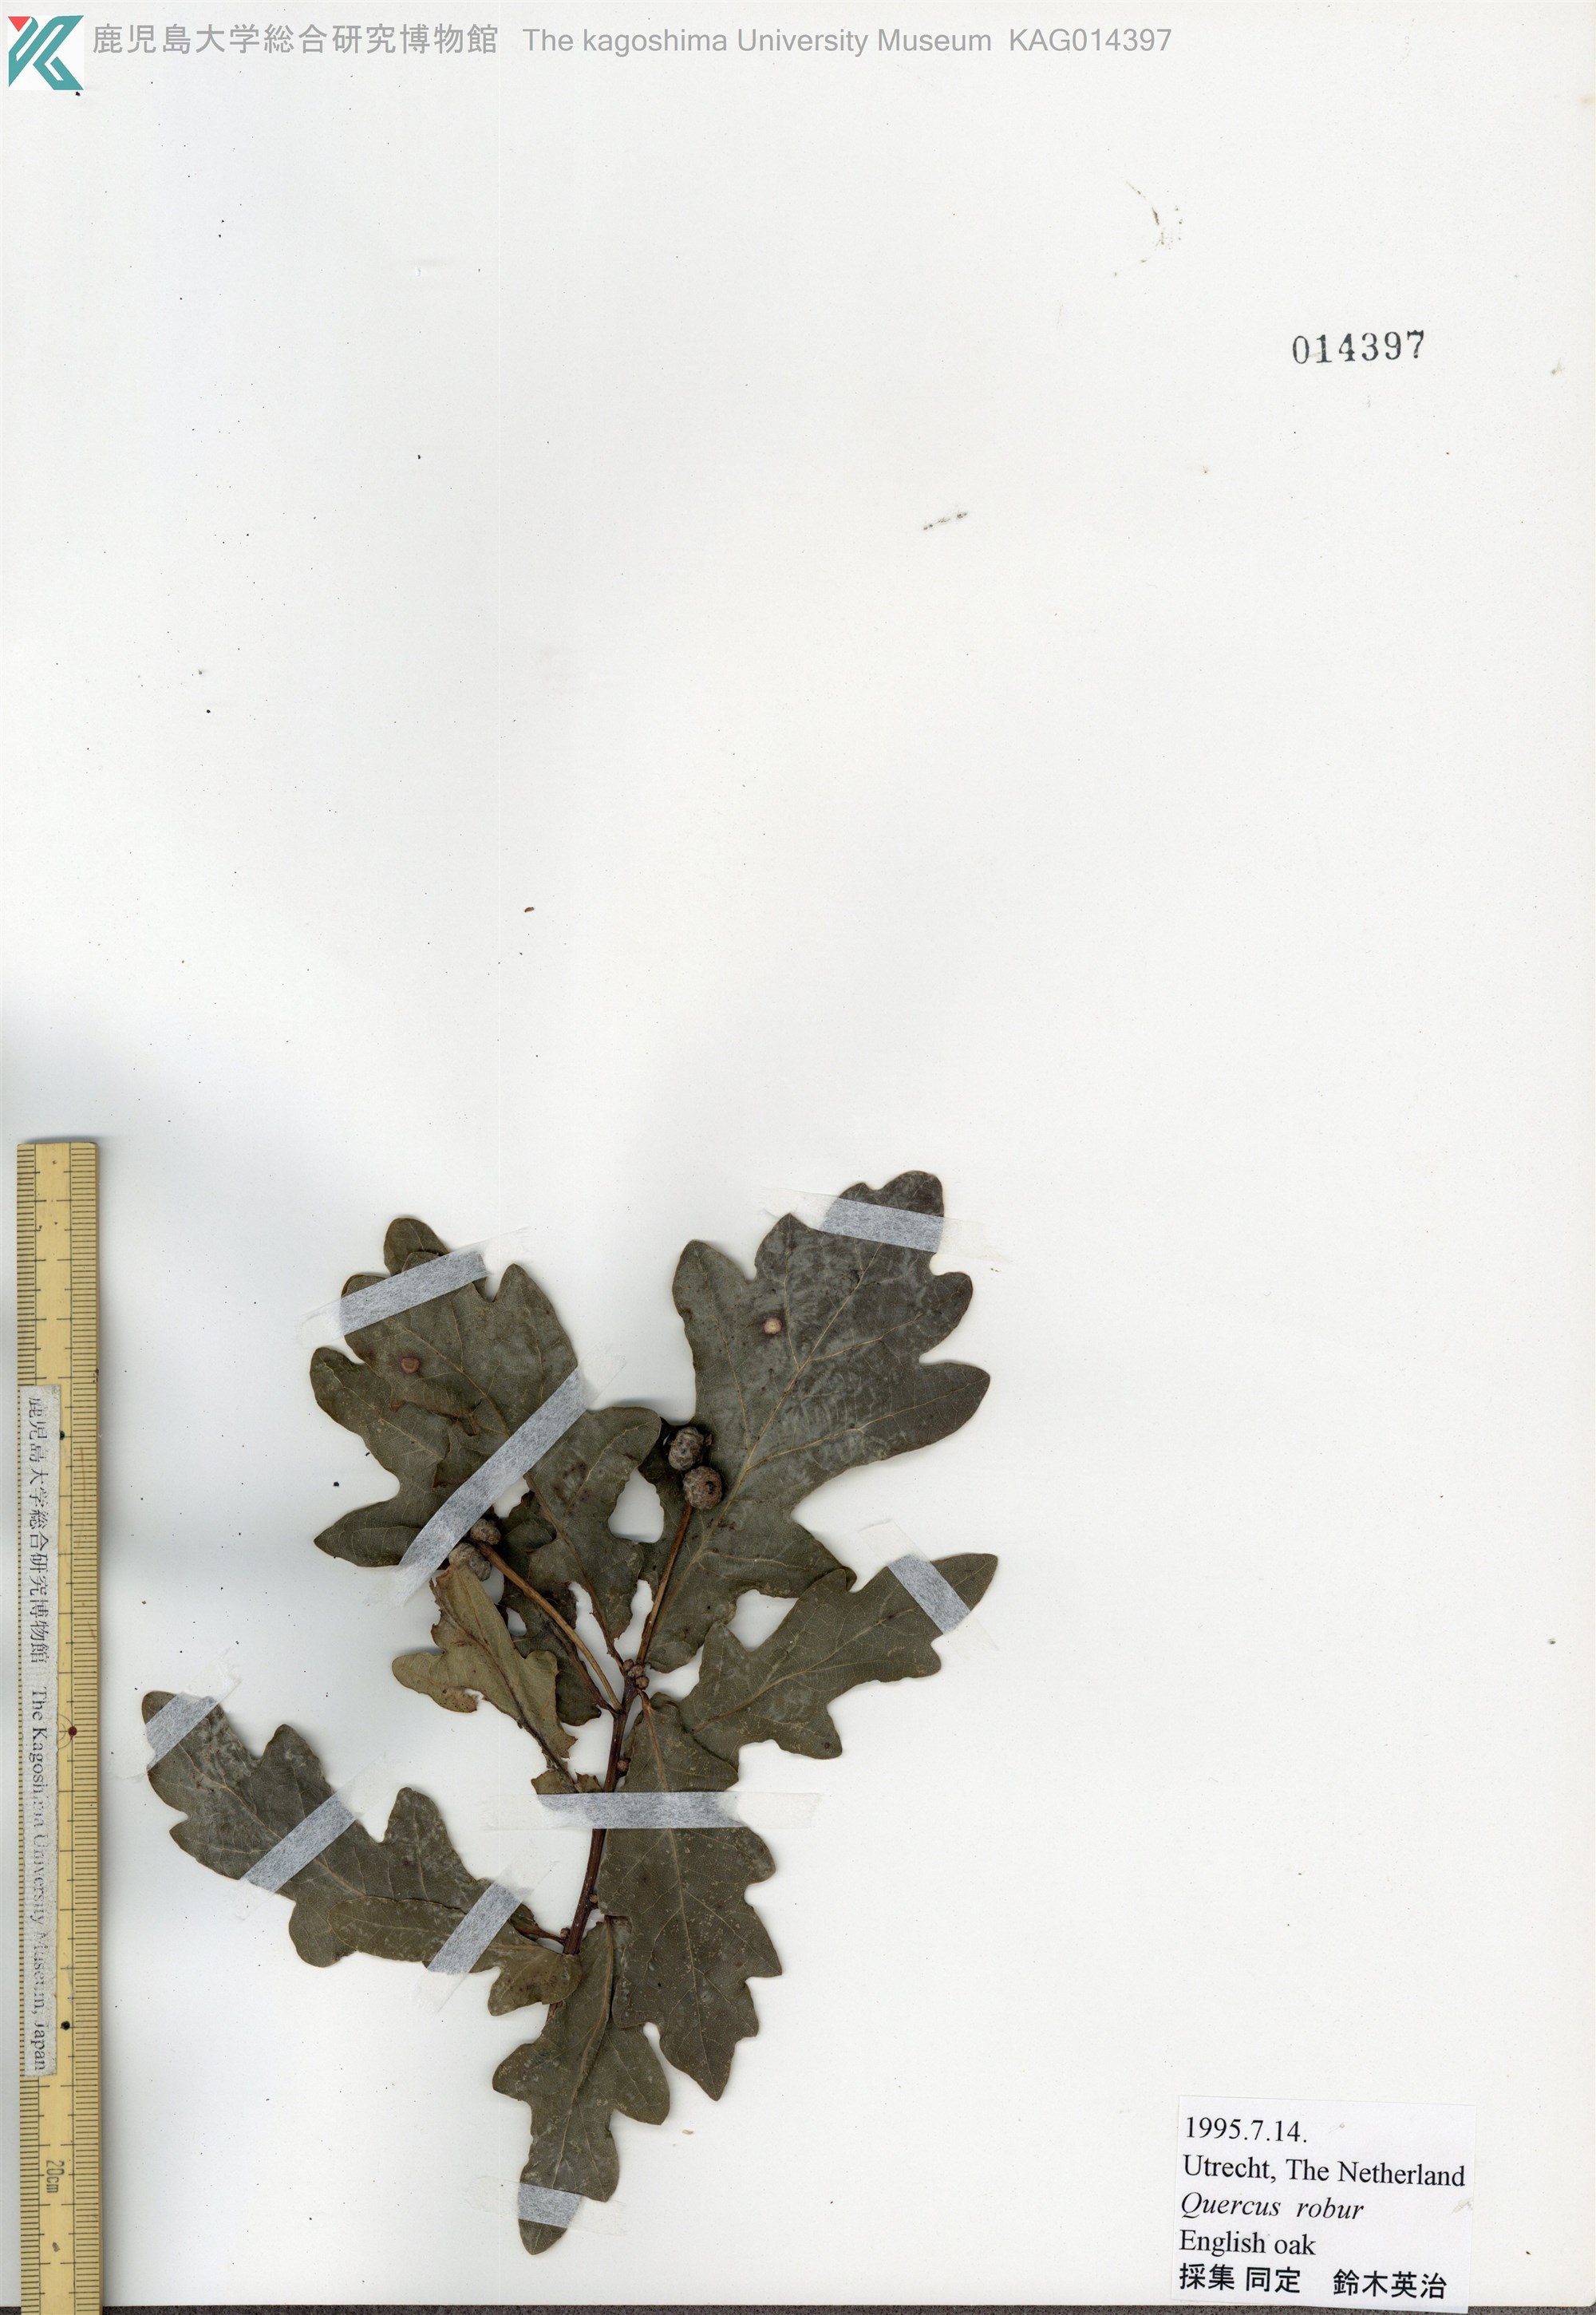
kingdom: Plantae
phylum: Tracheophyta
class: Magnoliopsida
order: Fagales
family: Fagaceae
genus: Quercus
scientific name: Quercus robur
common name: Pedunculate oak
